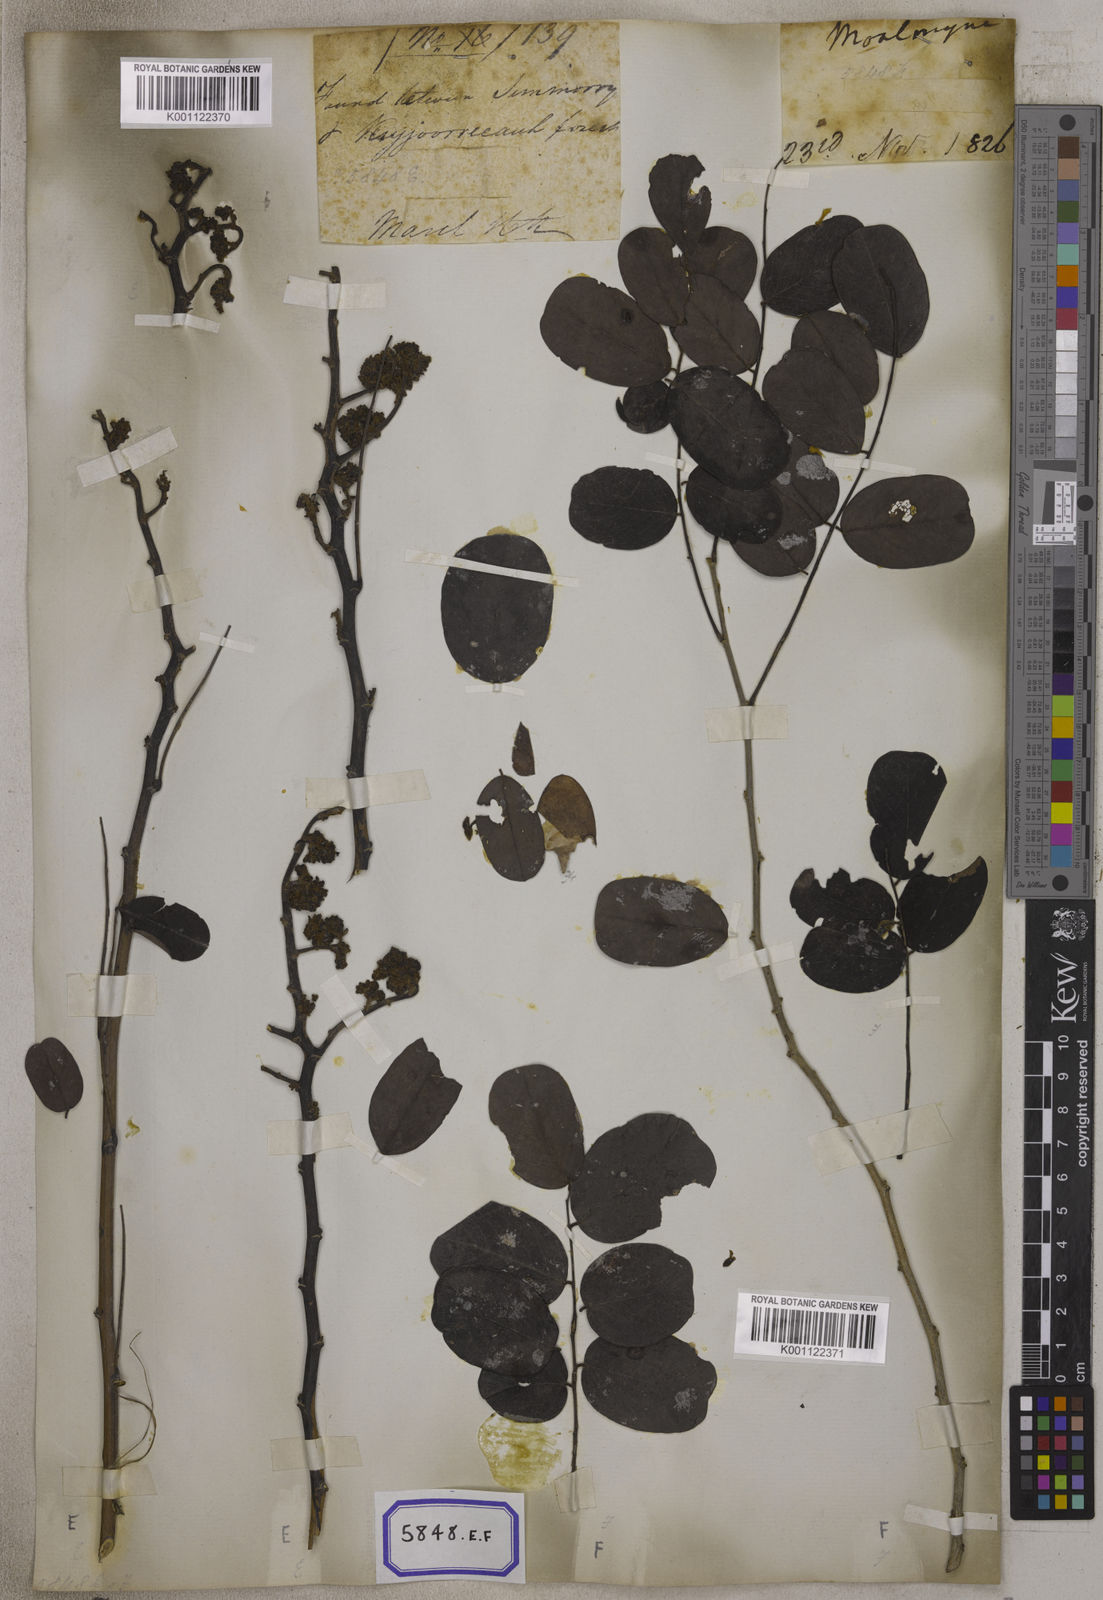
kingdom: Plantae
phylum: Tracheophyta
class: Magnoliopsida
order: Fabales
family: Fabaceae
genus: Dalbergia
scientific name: Dalbergia lanceolaria
